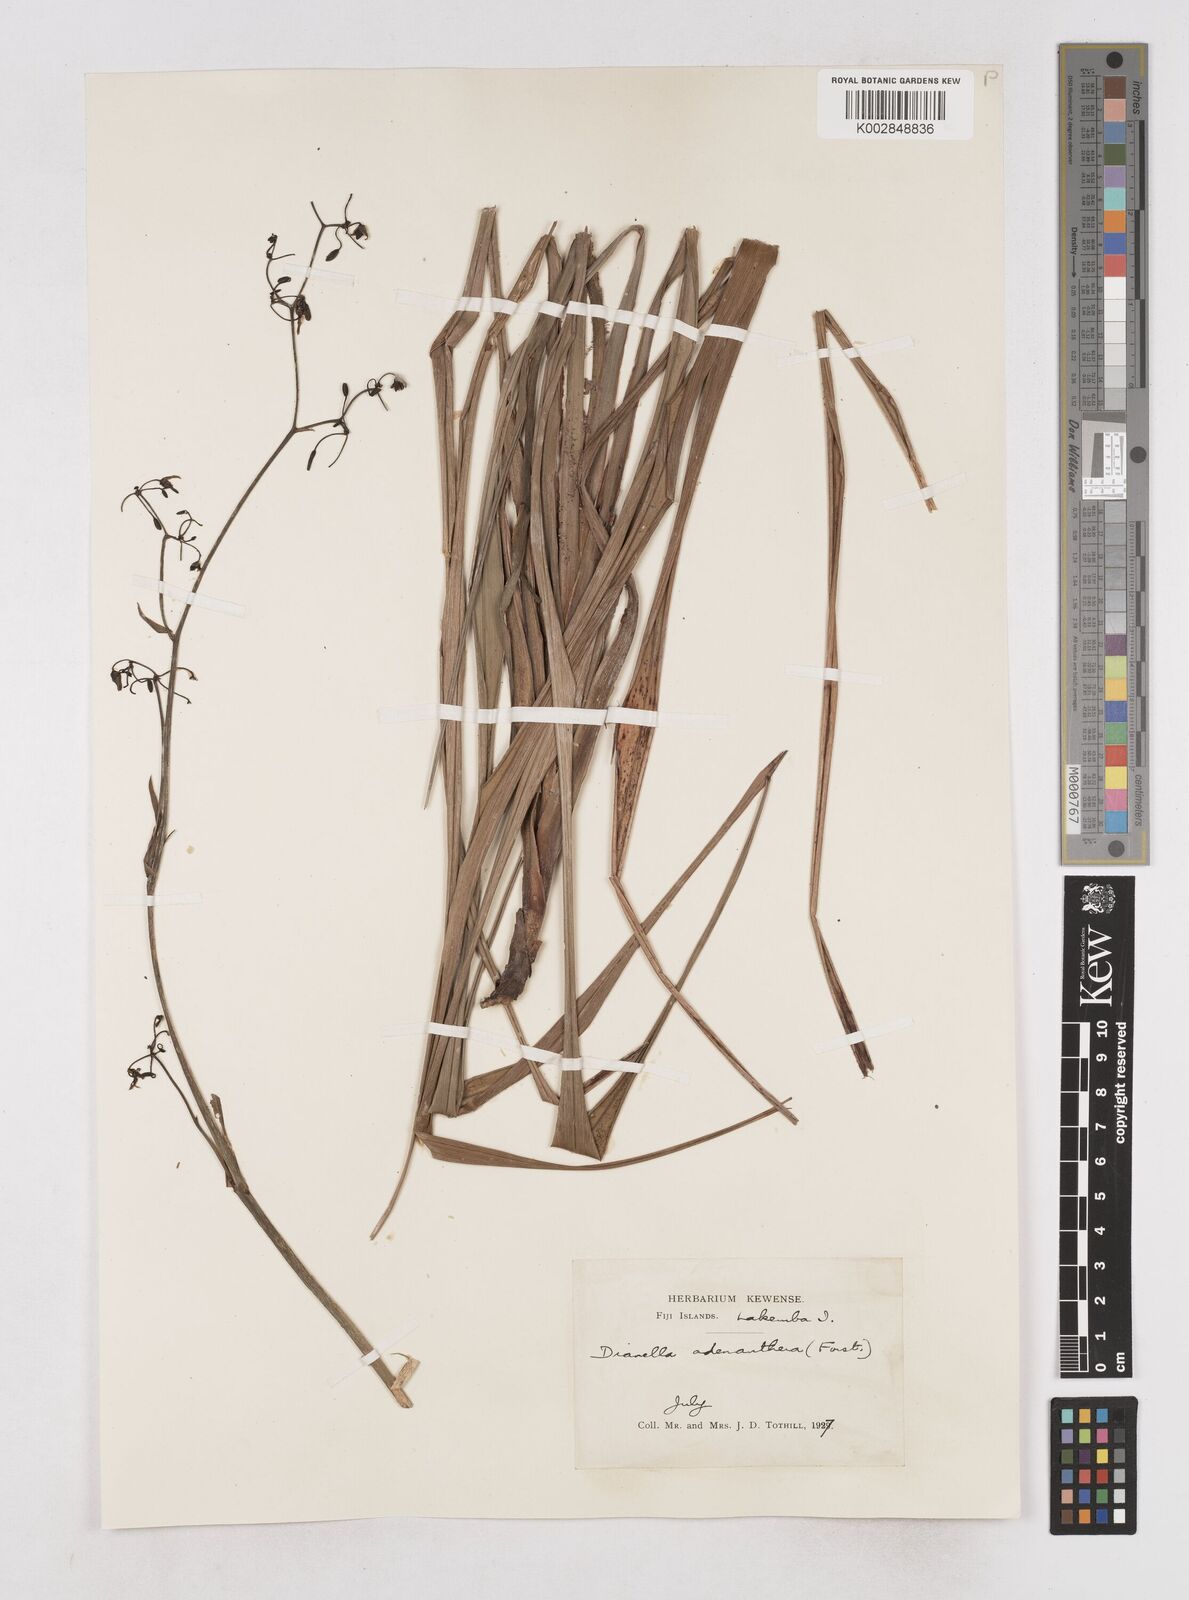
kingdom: Plantae
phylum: Tracheophyta
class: Liliopsida
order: Asparagales
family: Asphodelaceae
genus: Dianella
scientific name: Dianella ensifolia
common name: New zealand lilyplant
